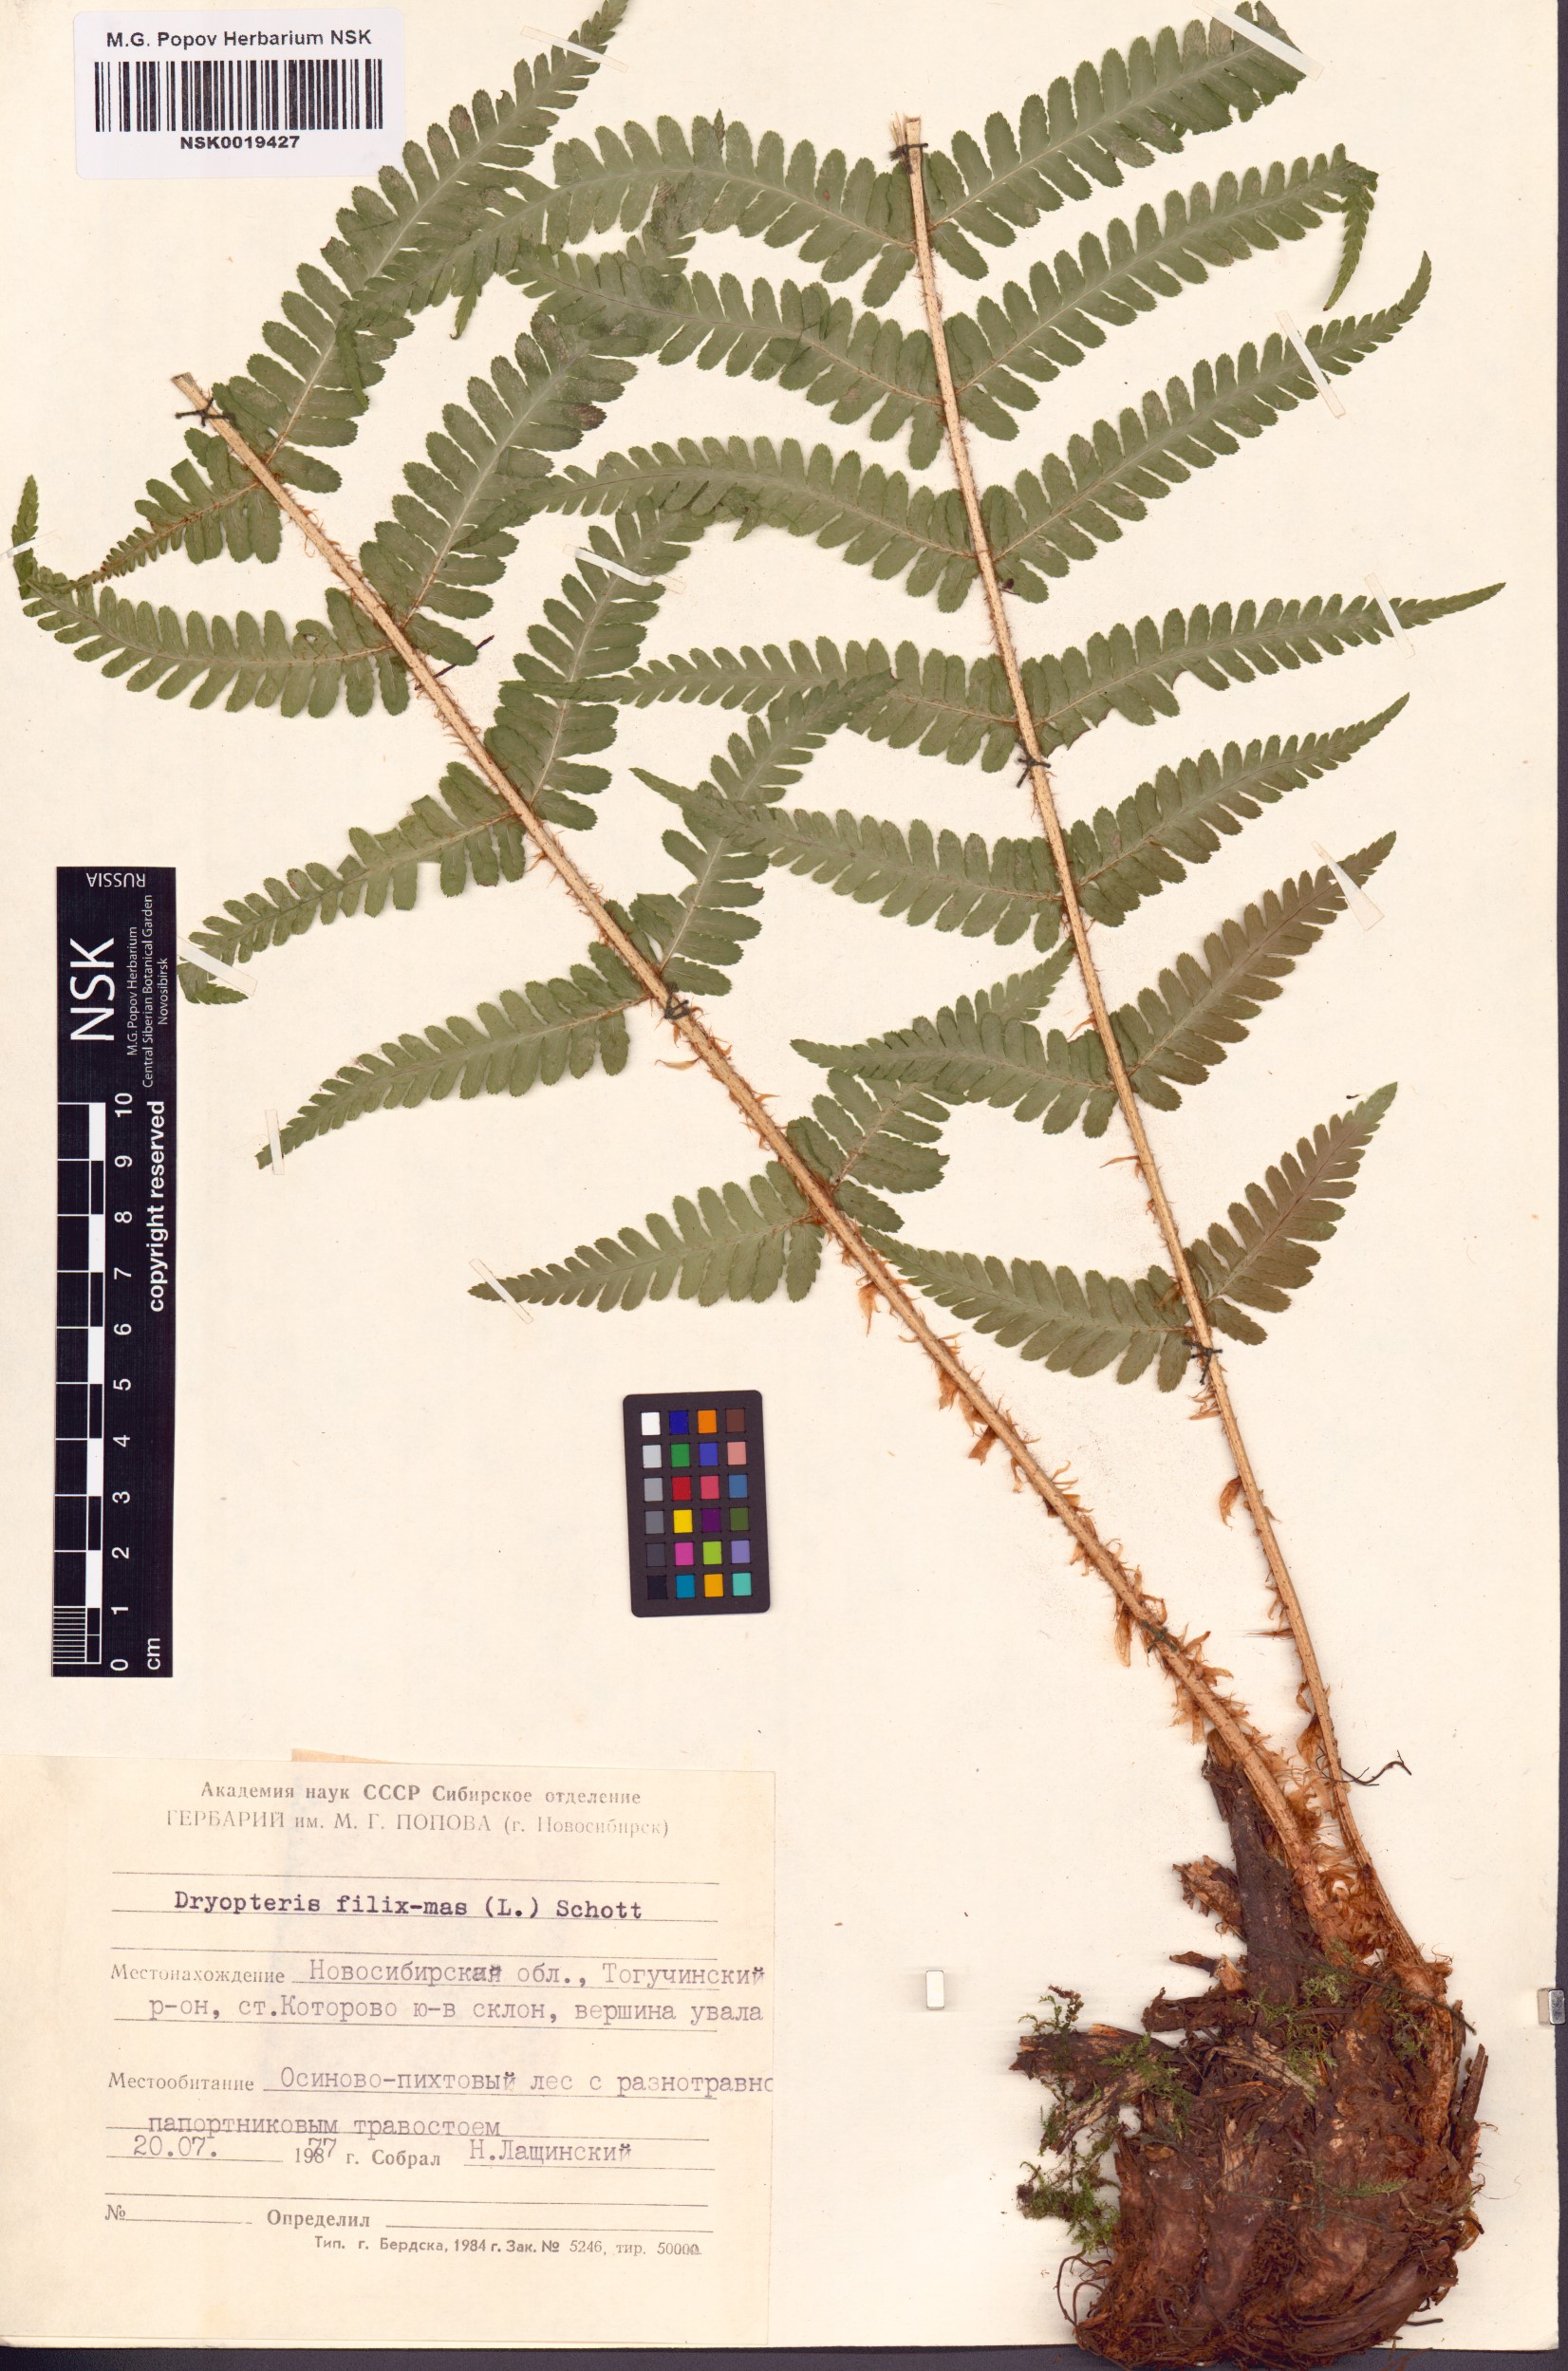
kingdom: Plantae
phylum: Tracheophyta
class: Polypodiopsida
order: Polypodiales
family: Dryopteridaceae
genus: Dryopteris
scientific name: Dryopteris filix-mas
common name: Male fern
